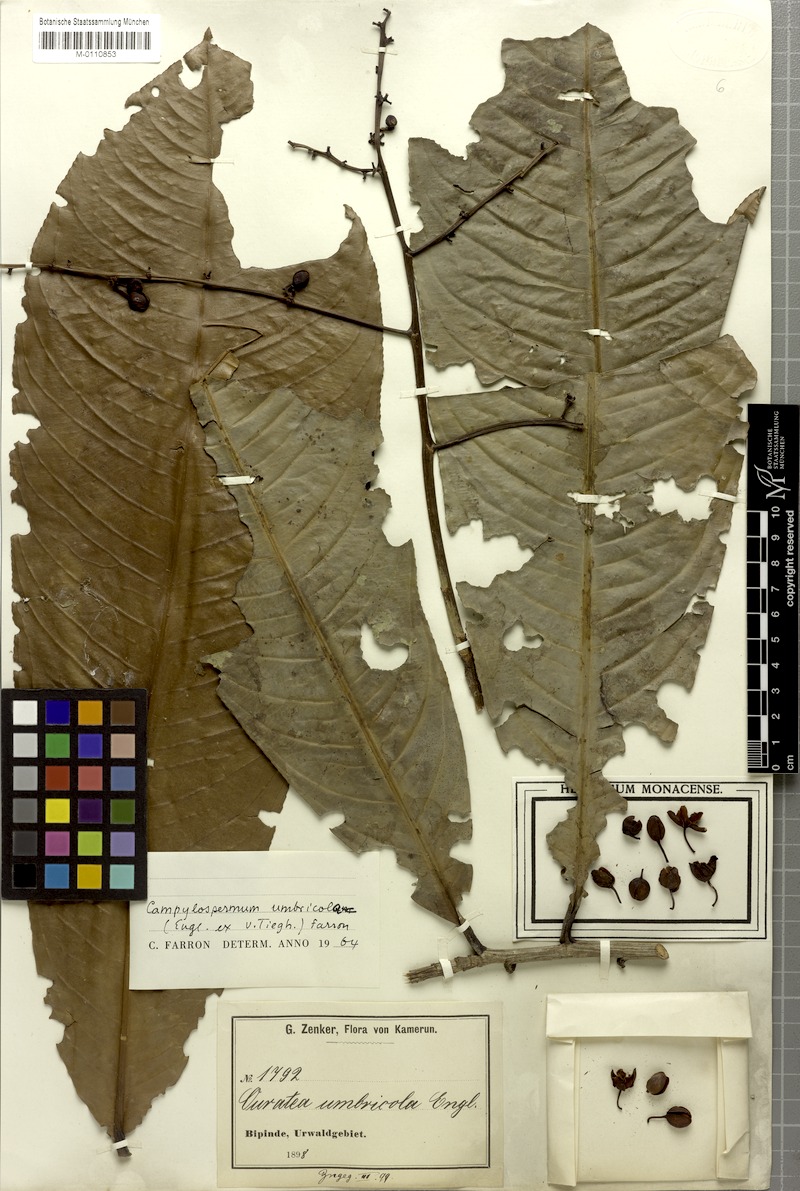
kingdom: Plantae
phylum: Tracheophyta
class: Magnoliopsida
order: Malpighiales
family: Ochnaceae
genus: Campylospermum
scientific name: Campylospermum umbricola
